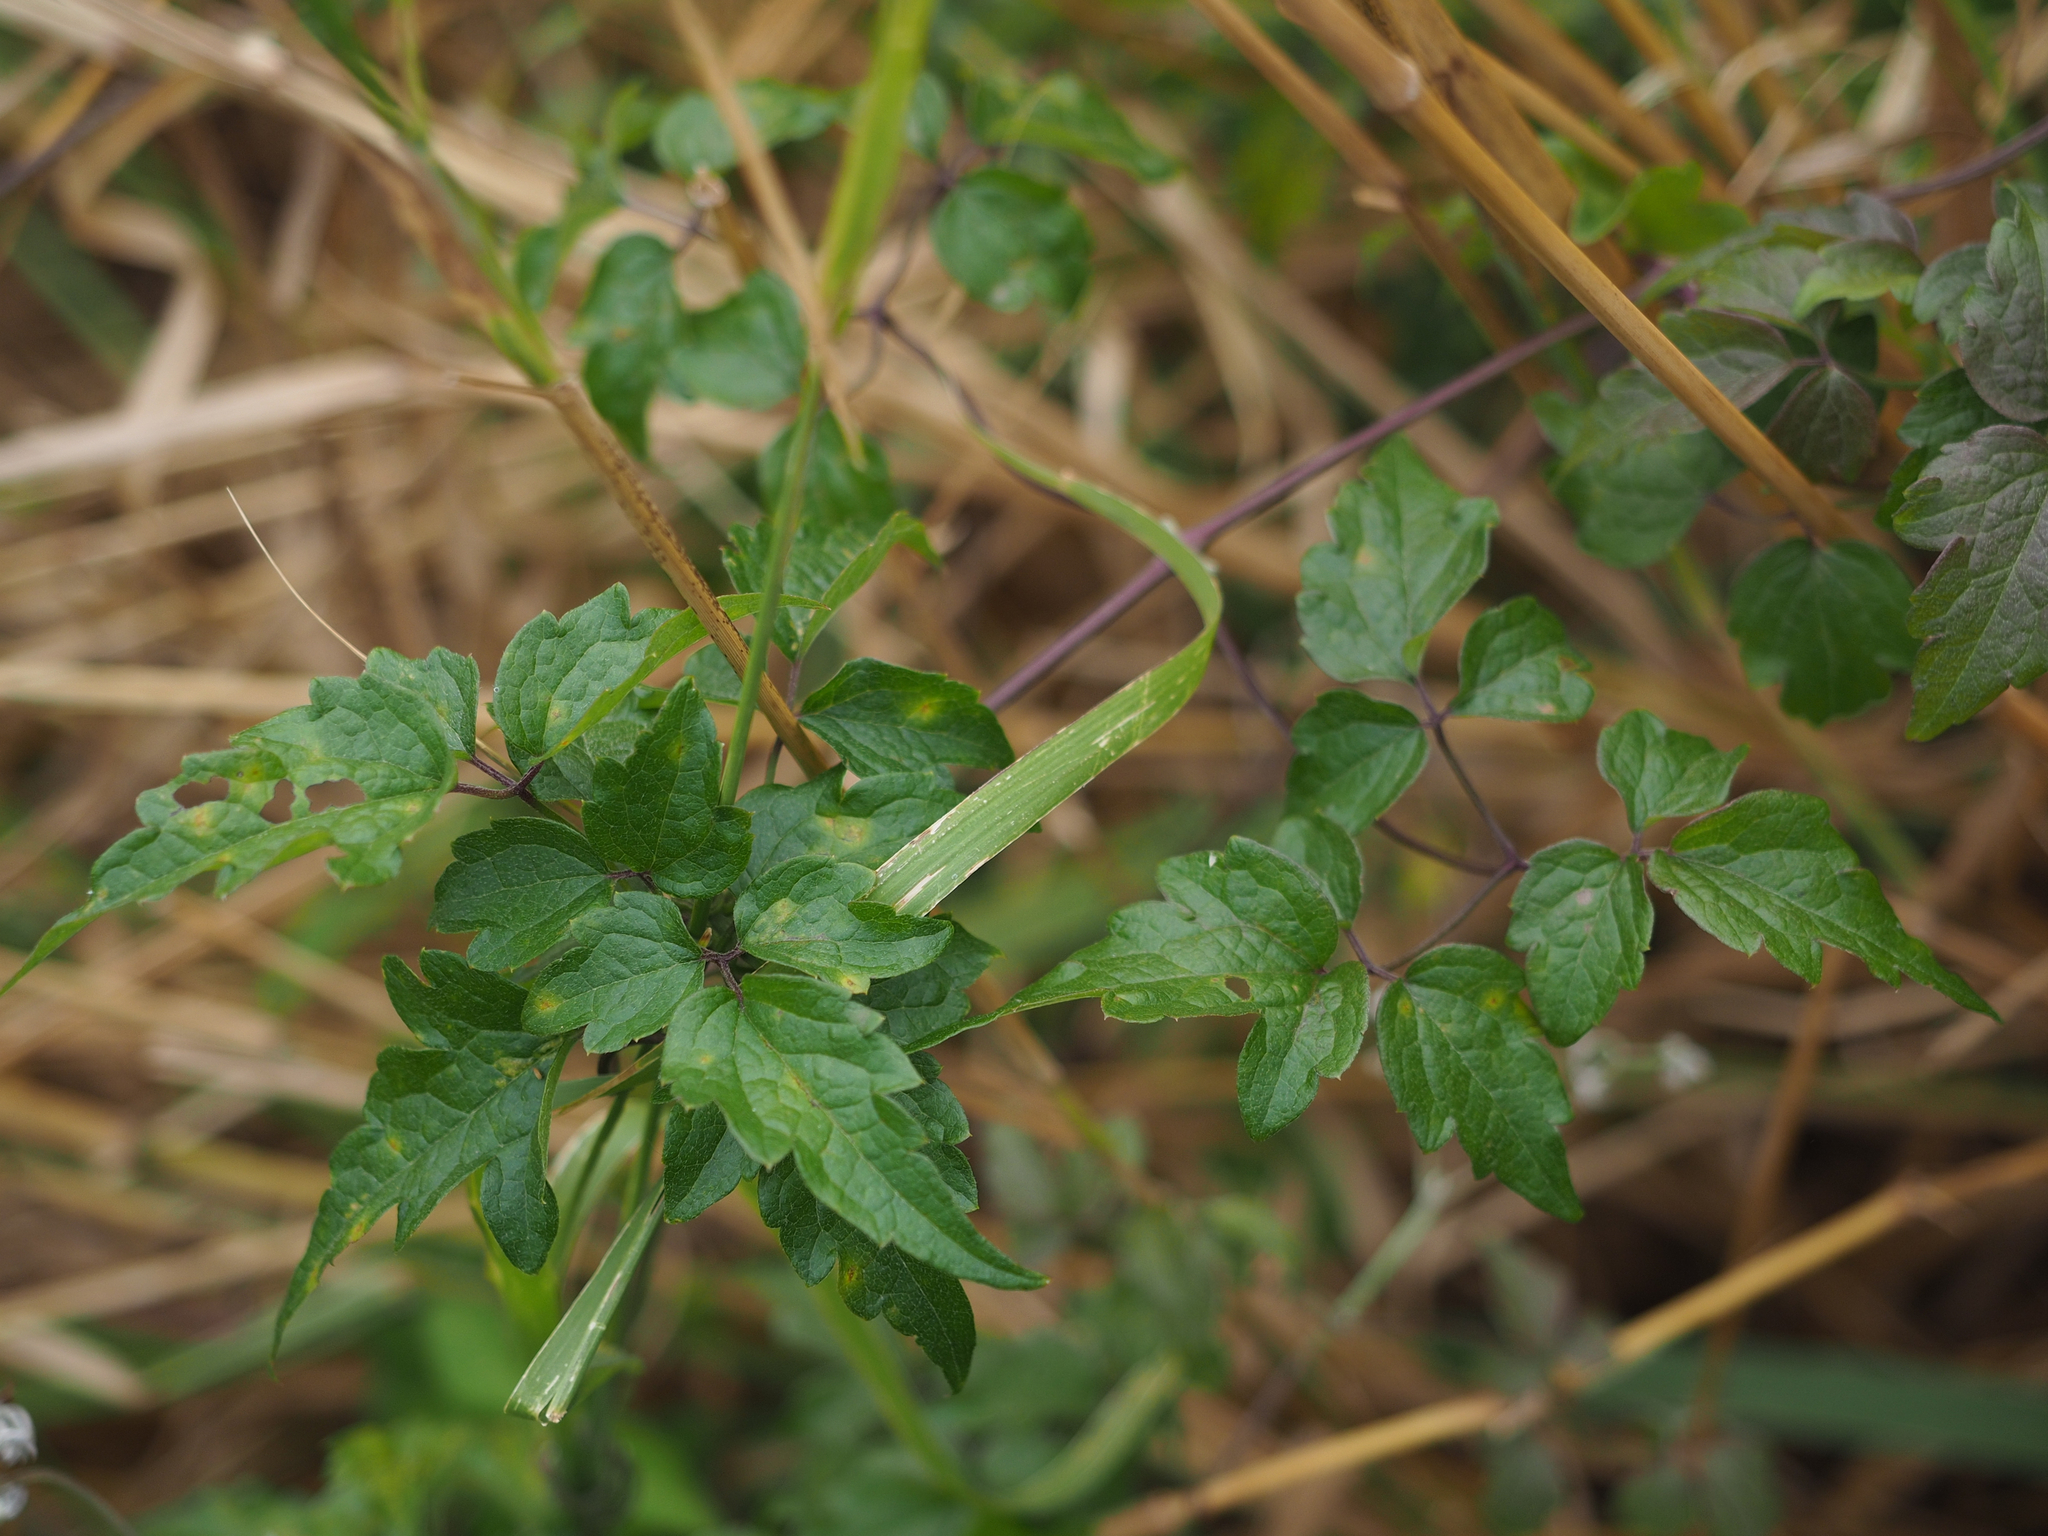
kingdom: Plantae
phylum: Tracheophyta
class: Magnoliopsida
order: Ranunculales
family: Ranunculaceae
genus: Clematis
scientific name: Clematis grata
